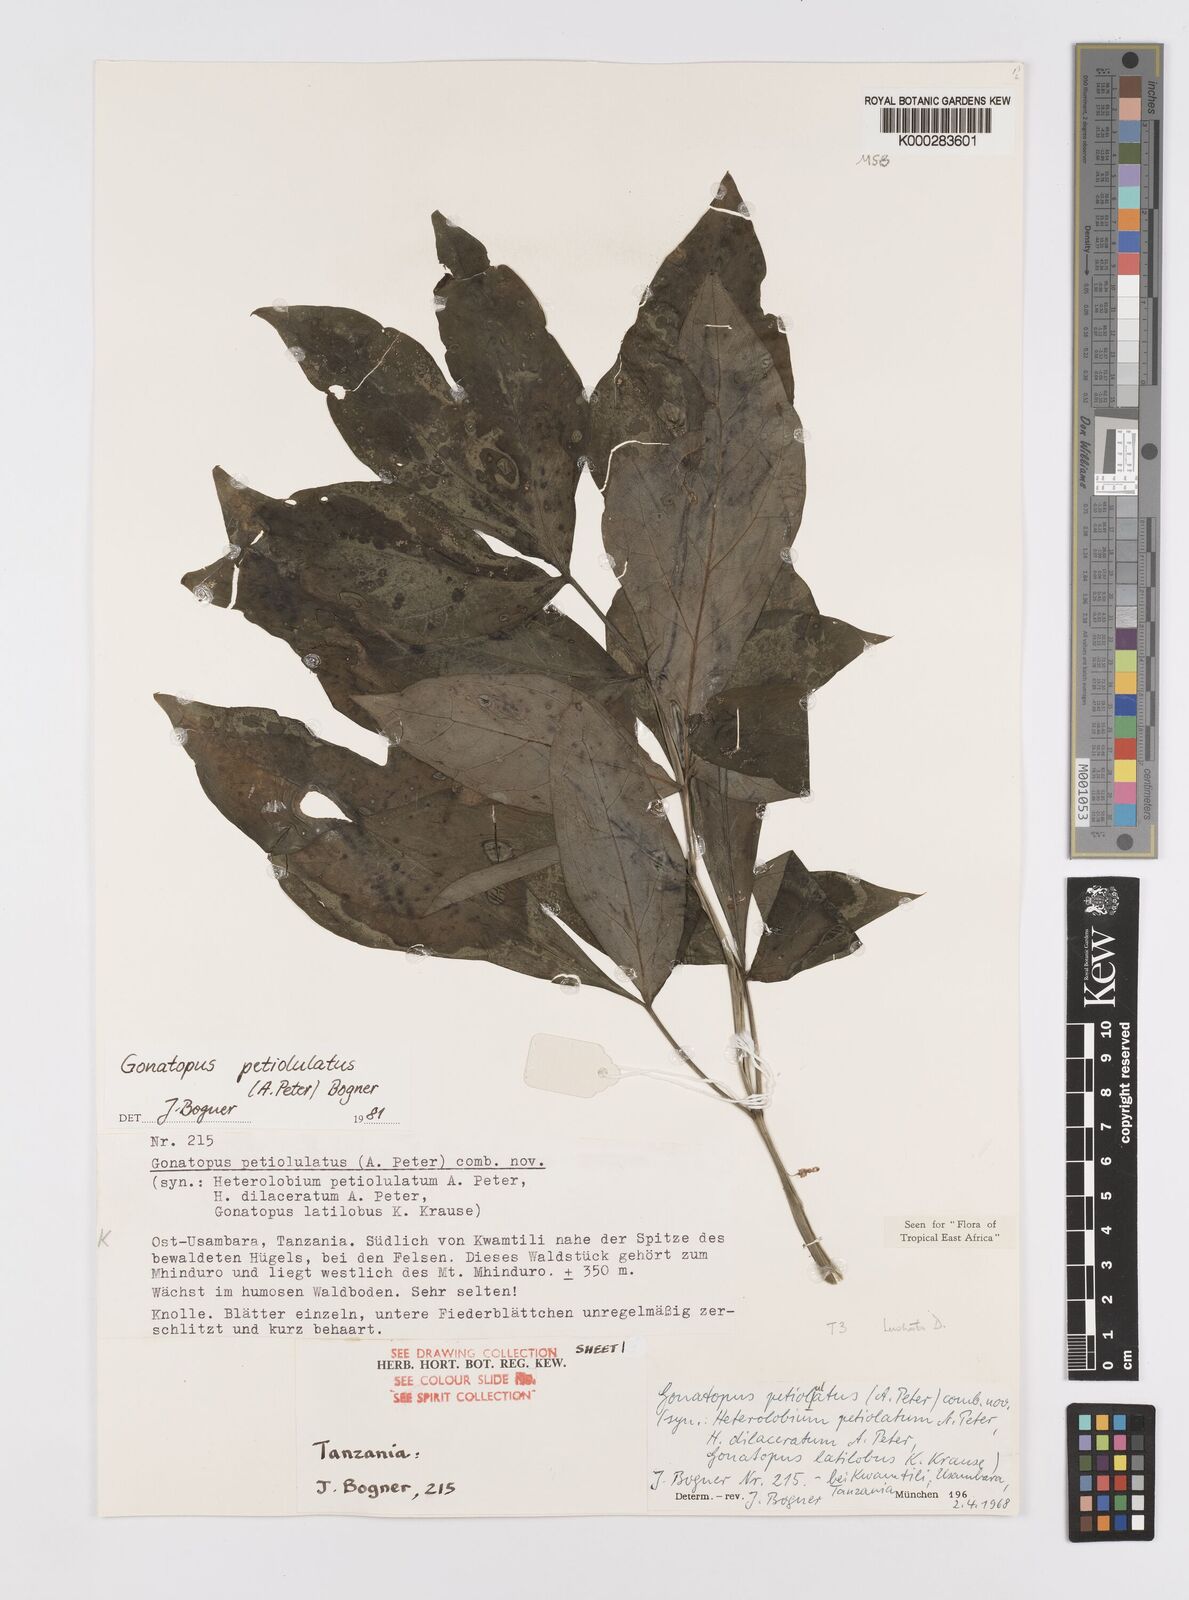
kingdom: Plantae
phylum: Tracheophyta
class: Liliopsida
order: Alismatales
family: Araceae
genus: Gonatopus
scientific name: Gonatopus petiolulatus
